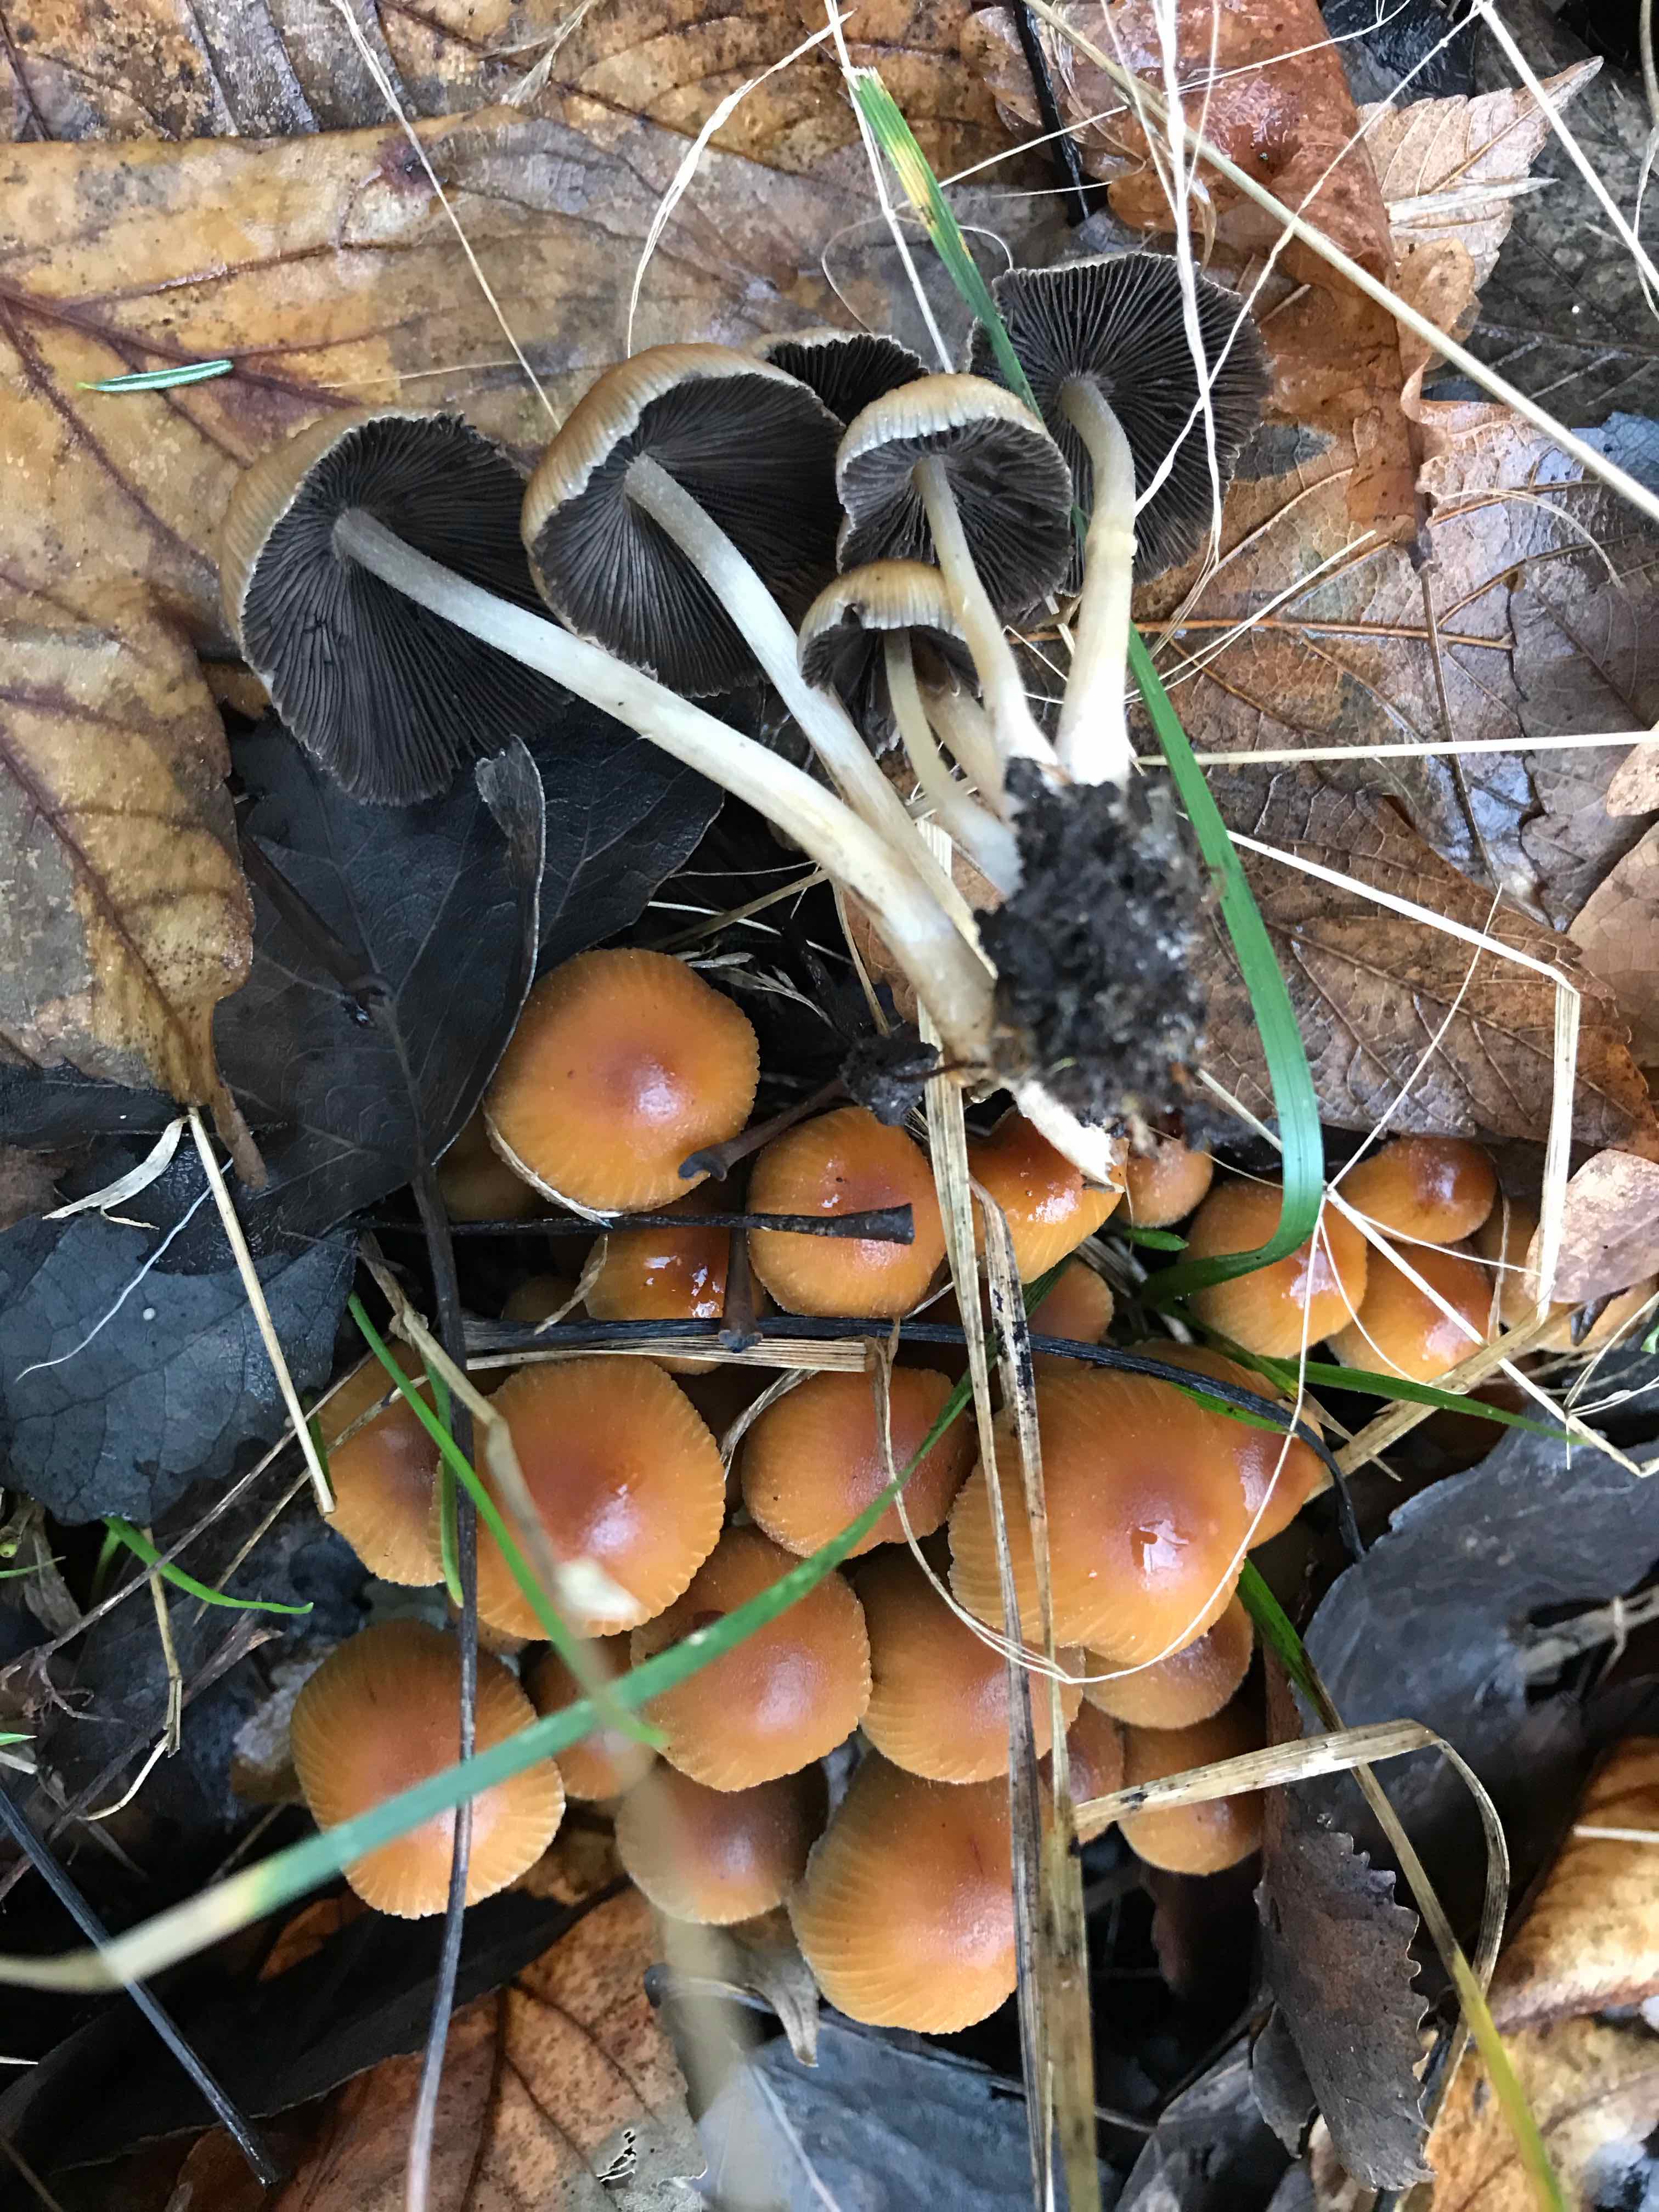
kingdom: Fungi
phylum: Basidiomycota
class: Agaricomycetes
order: Agaricales
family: Psathyrellaceae
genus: Coprinellus
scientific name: Coprinellus micaceus
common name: glimmer-blækhat
